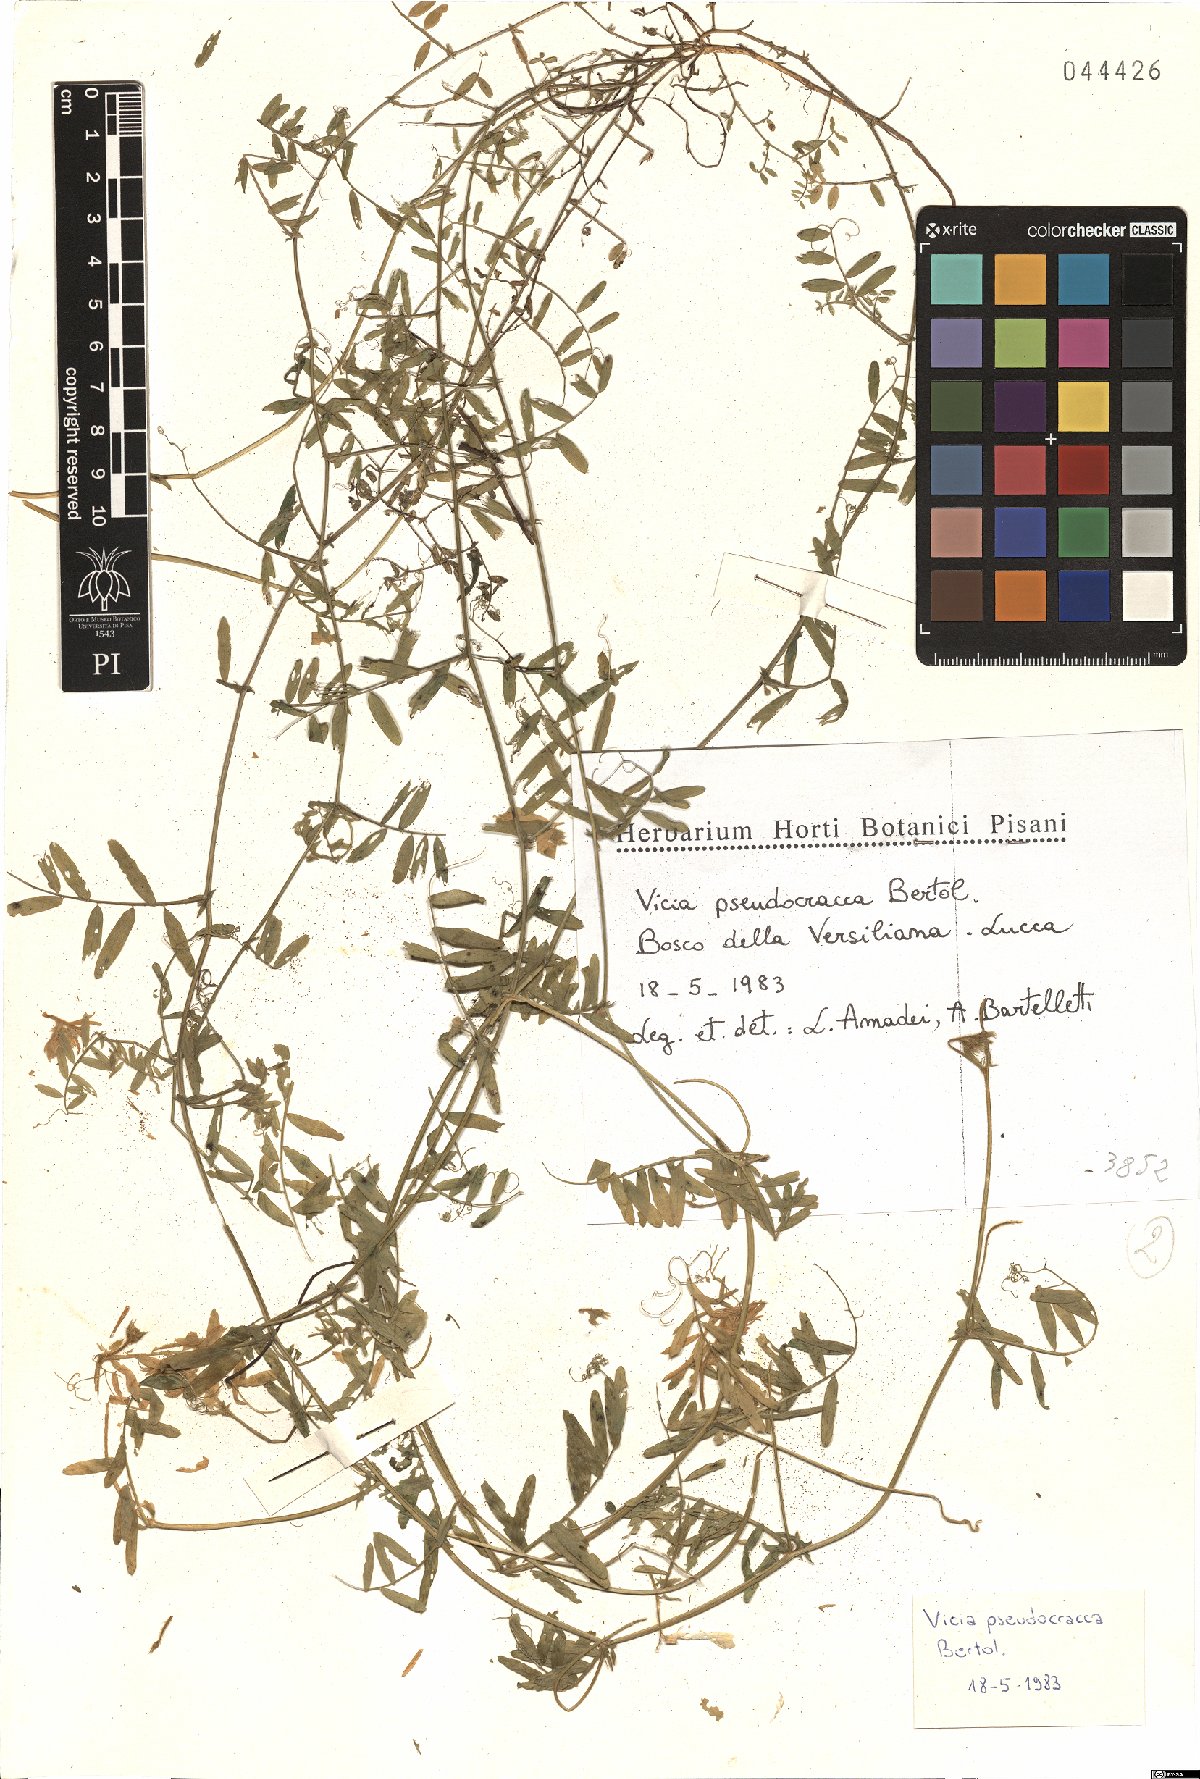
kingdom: Plantae
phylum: Tracheophyta
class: Magnoliopsida
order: Fabales
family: Fabaceae
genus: Vicia
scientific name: Vicia villosa
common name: Fodder vetch
